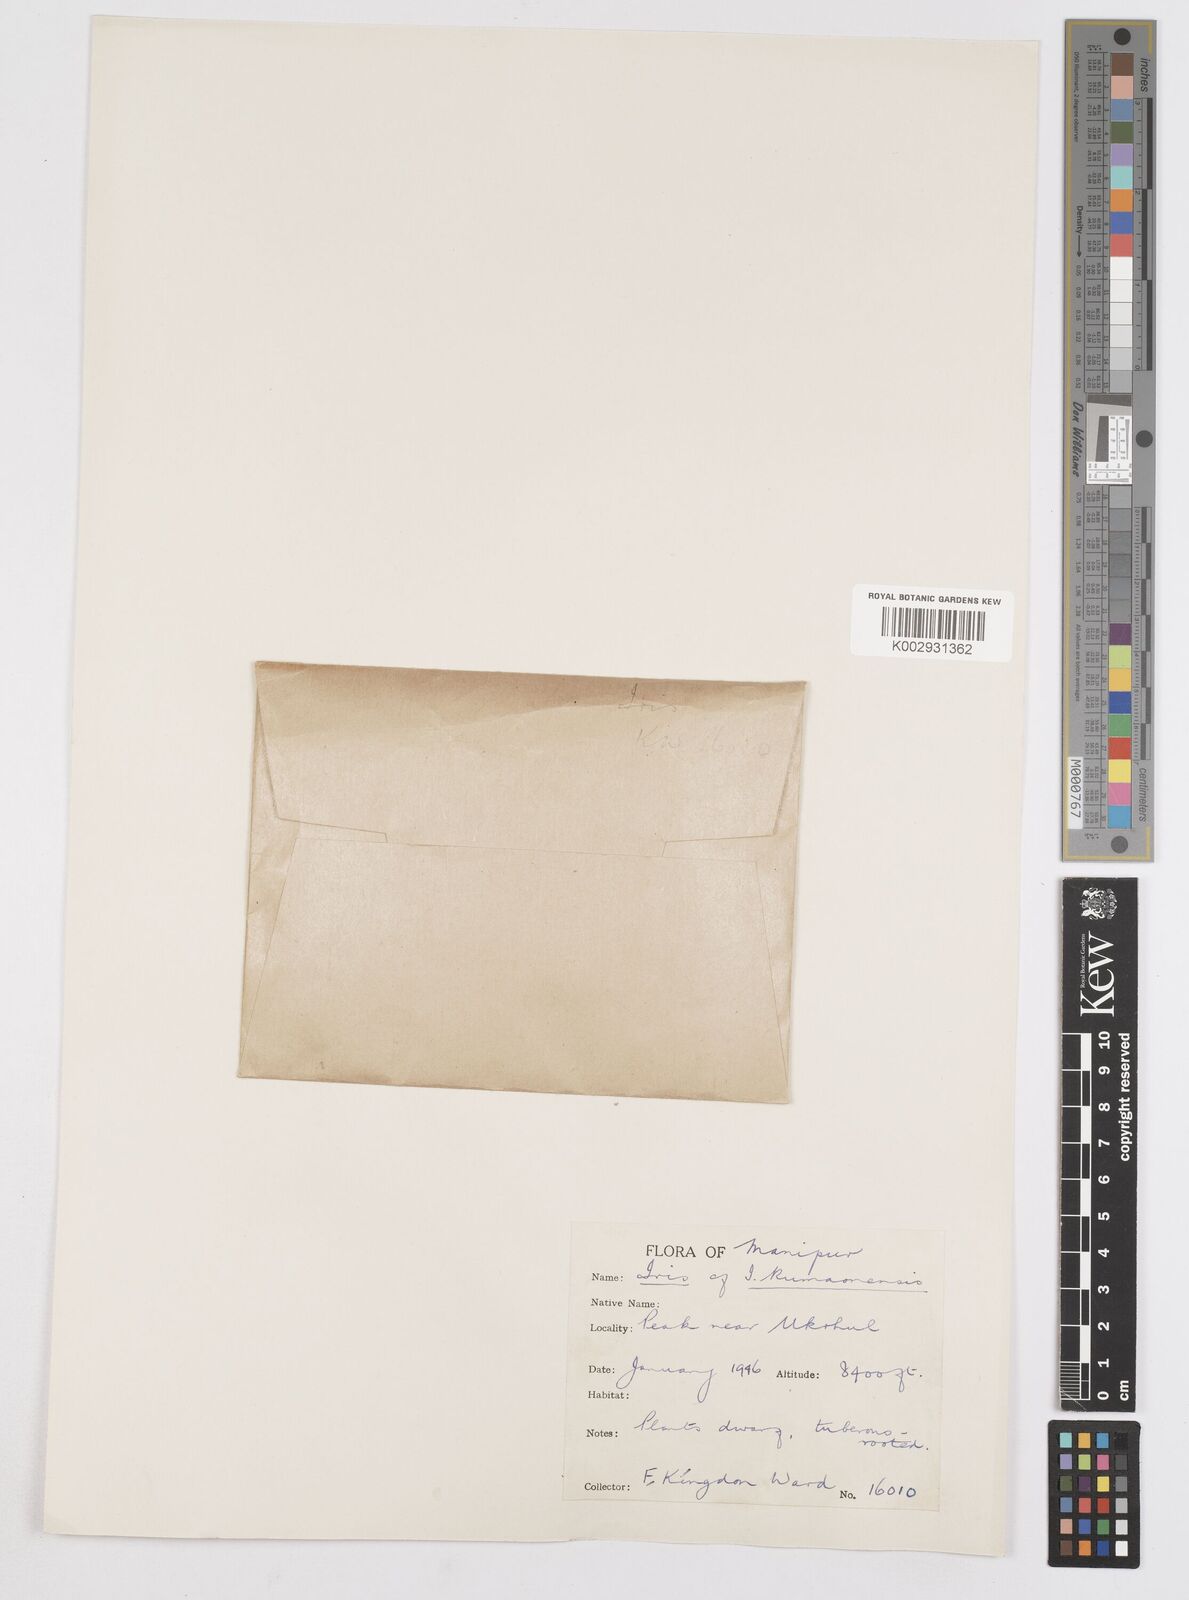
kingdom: Plantae
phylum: Tracheophyta
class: Liliopsida
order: Asparagales
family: Iridaceae
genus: Iris
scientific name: Iris halophila
